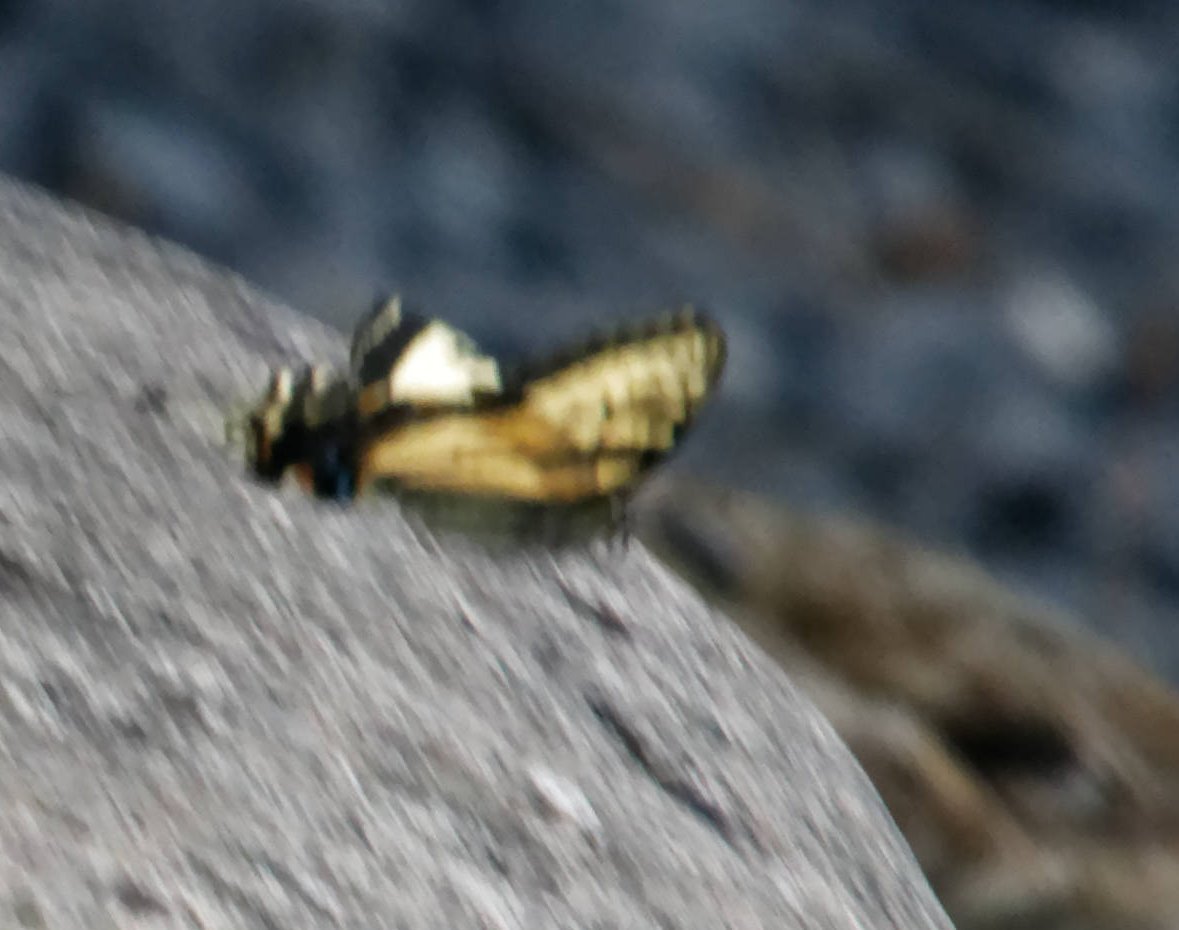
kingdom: Animalia
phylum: Arthropoda
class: Insecta
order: Lepidoptera
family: Papilionidae
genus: Pterourus
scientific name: Pterourus
